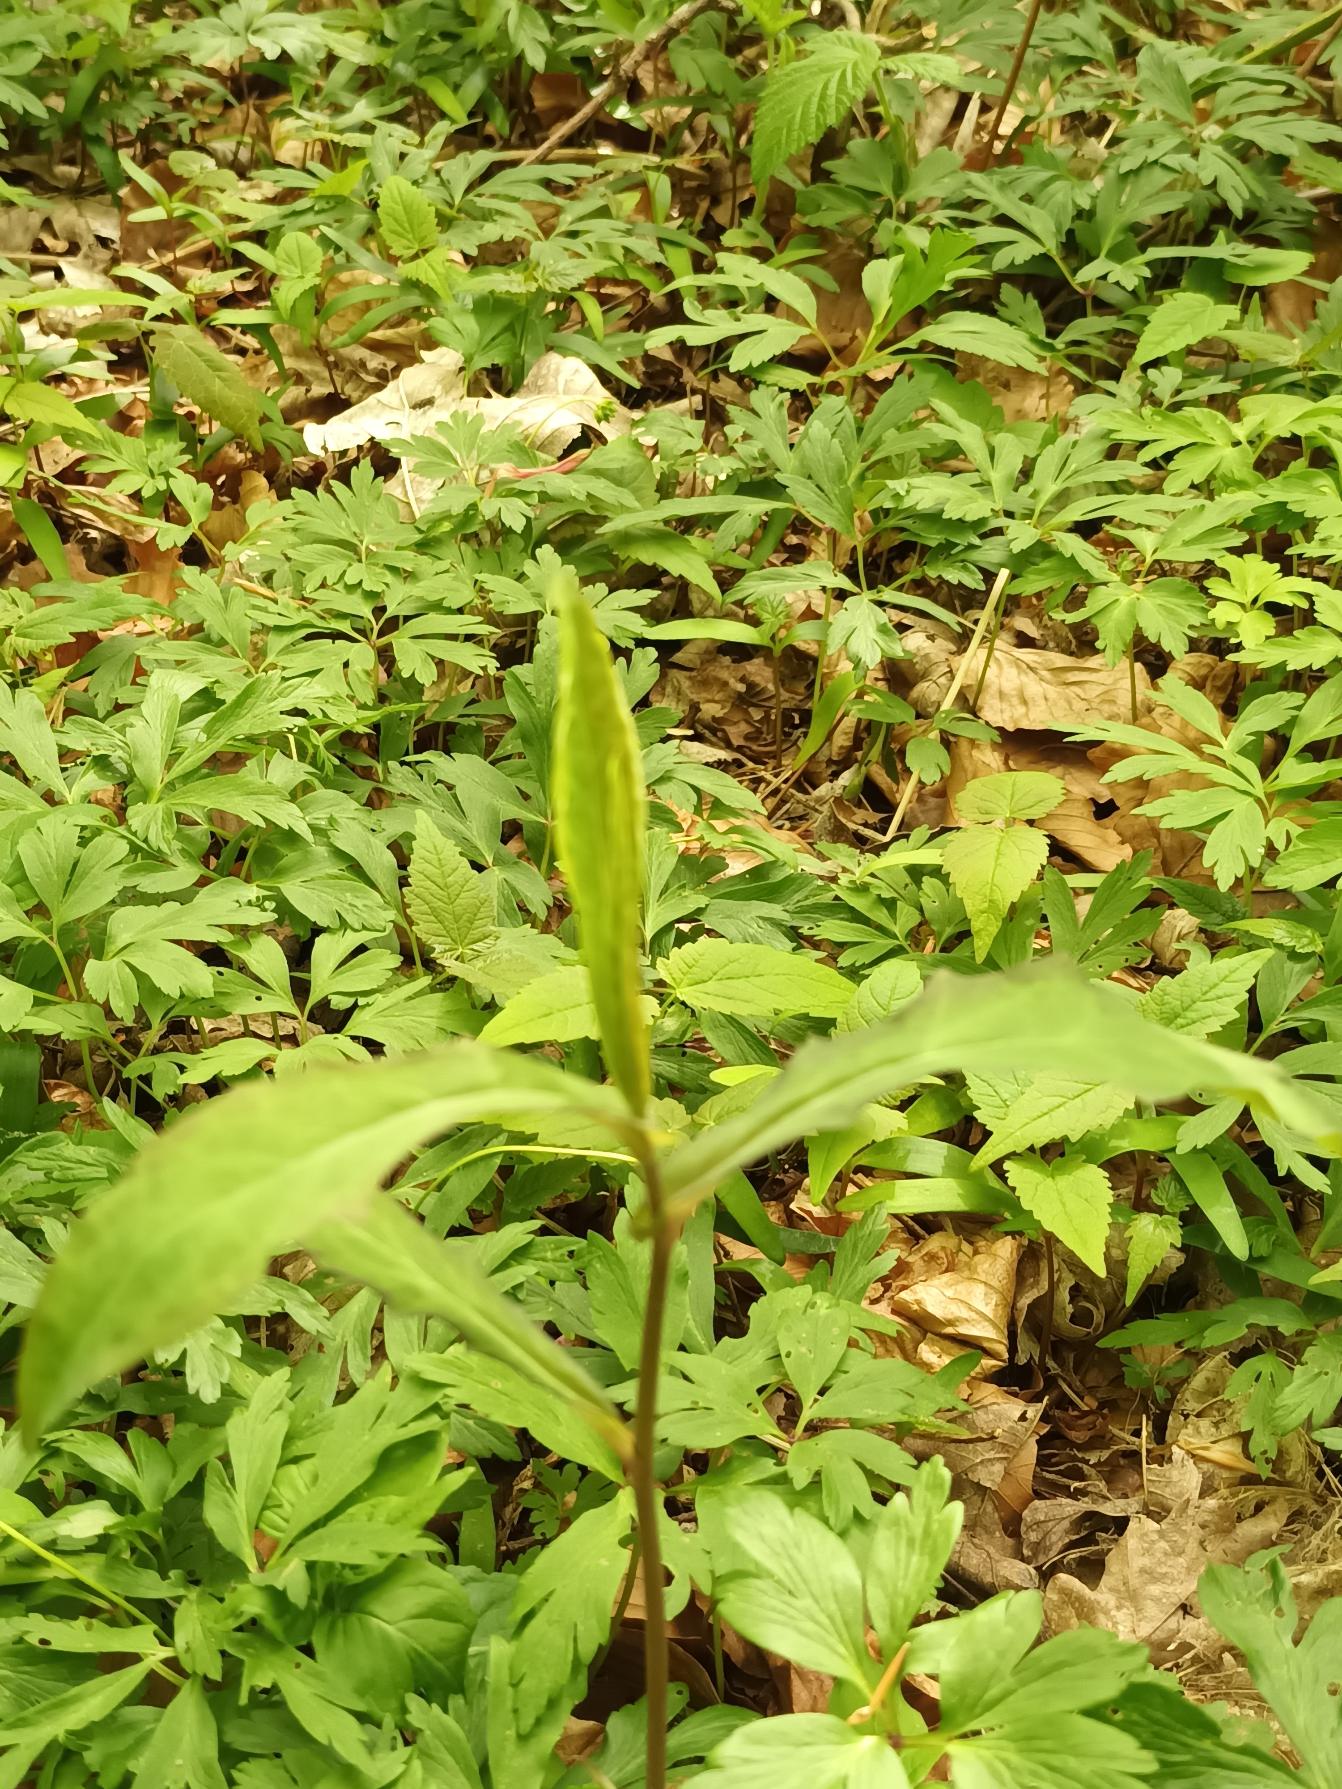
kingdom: Plantae
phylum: Tracheophyta
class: Magnoliopsida
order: Asterales
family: Asteraceae
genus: Prenanthes
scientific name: Prenanthes purpurea
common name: Hængekurv
